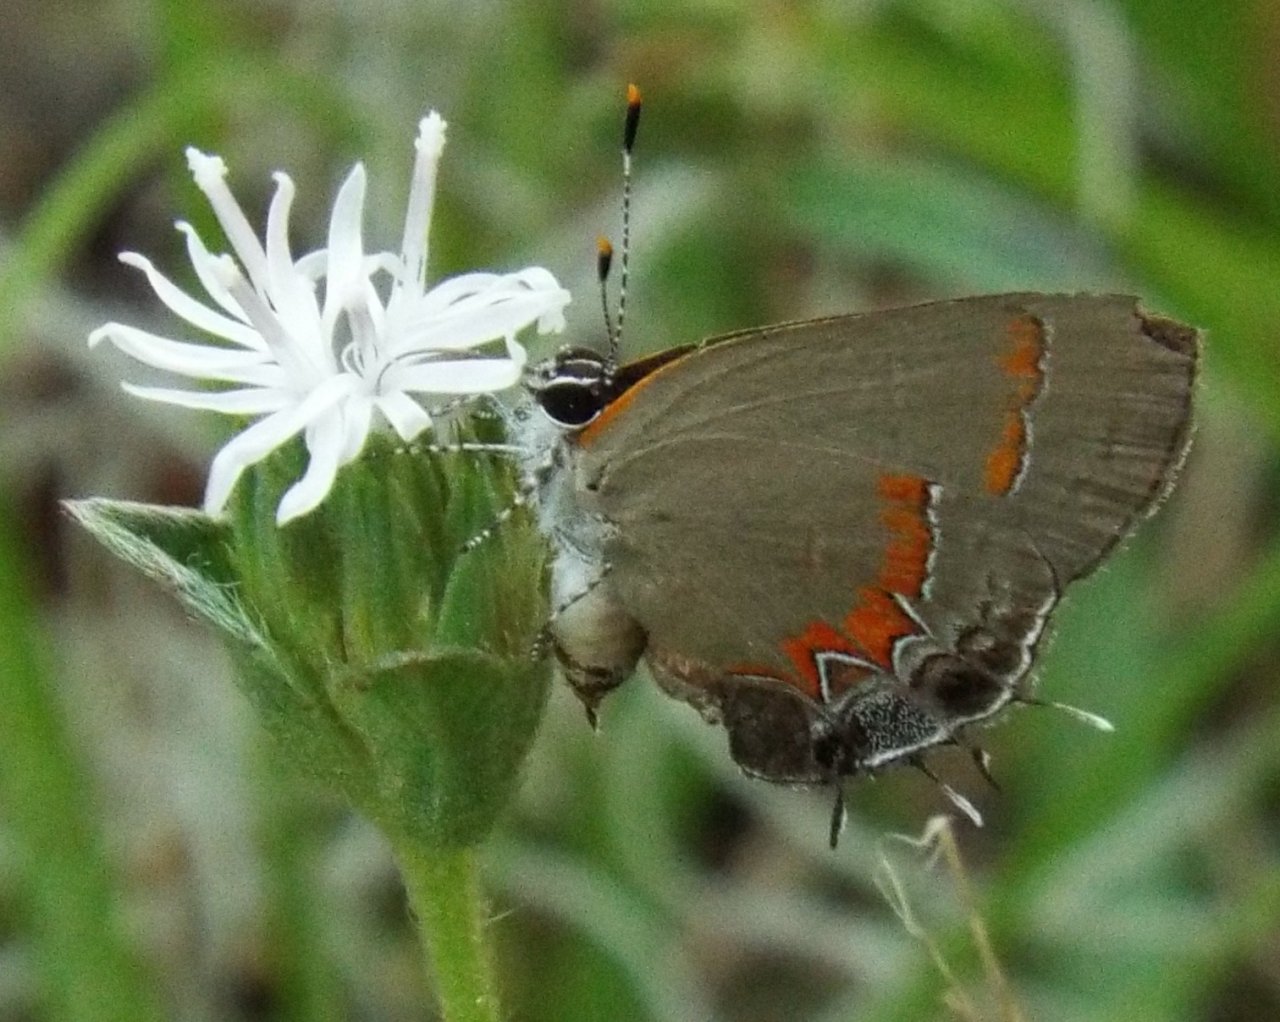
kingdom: Animalia
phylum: Arthropoda
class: Insecta
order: Lepidoptera
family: Lycaenidae
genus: Calycopis
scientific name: Calycopis cecrops
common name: Red-banded Hairstreak
